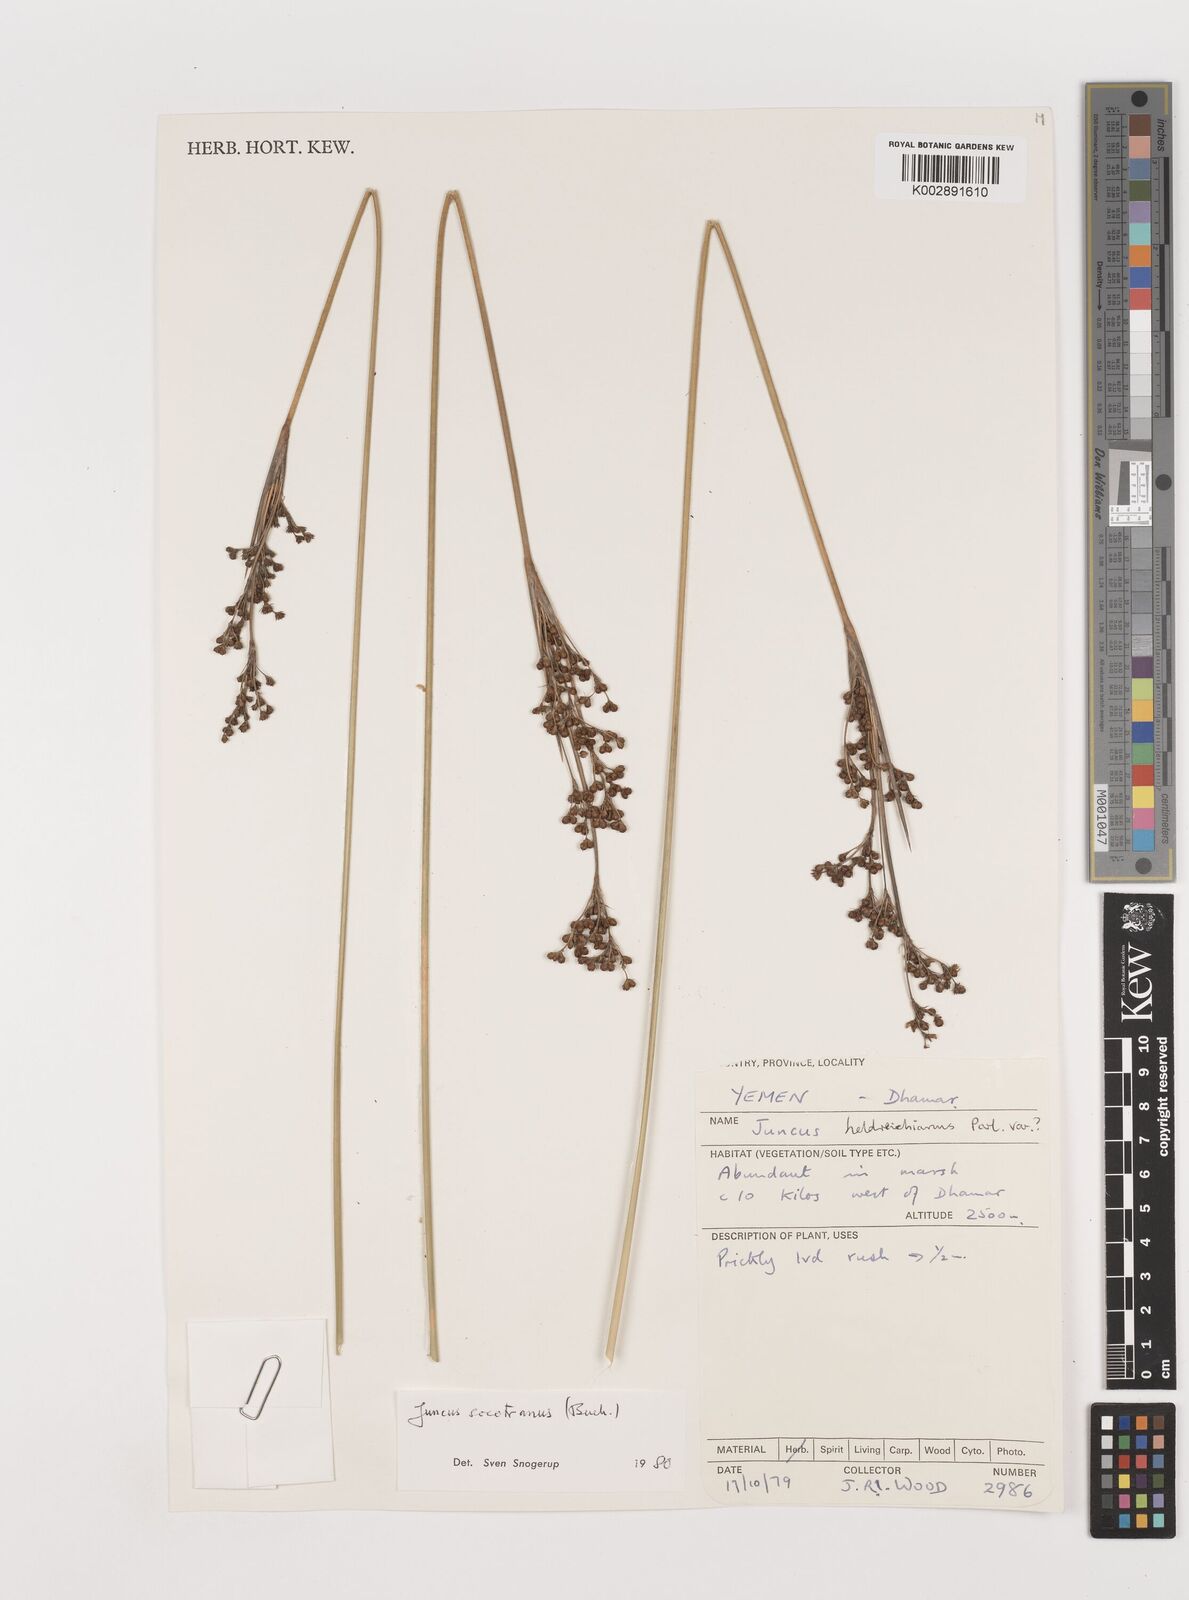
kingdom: Plantae
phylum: Tracheophyta
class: Liliopsida
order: Poales
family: Juncaceae
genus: Juncus
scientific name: Juncus socotranus
